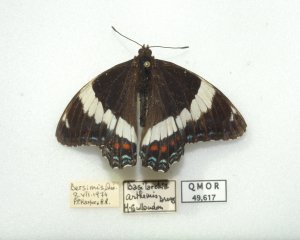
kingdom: Animalia
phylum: Arthropoda
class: Insecta
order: Lepidoptera
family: Nymphalidae
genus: Limenitis
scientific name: Limenitis arthemis
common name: Red-spotted Admiral
